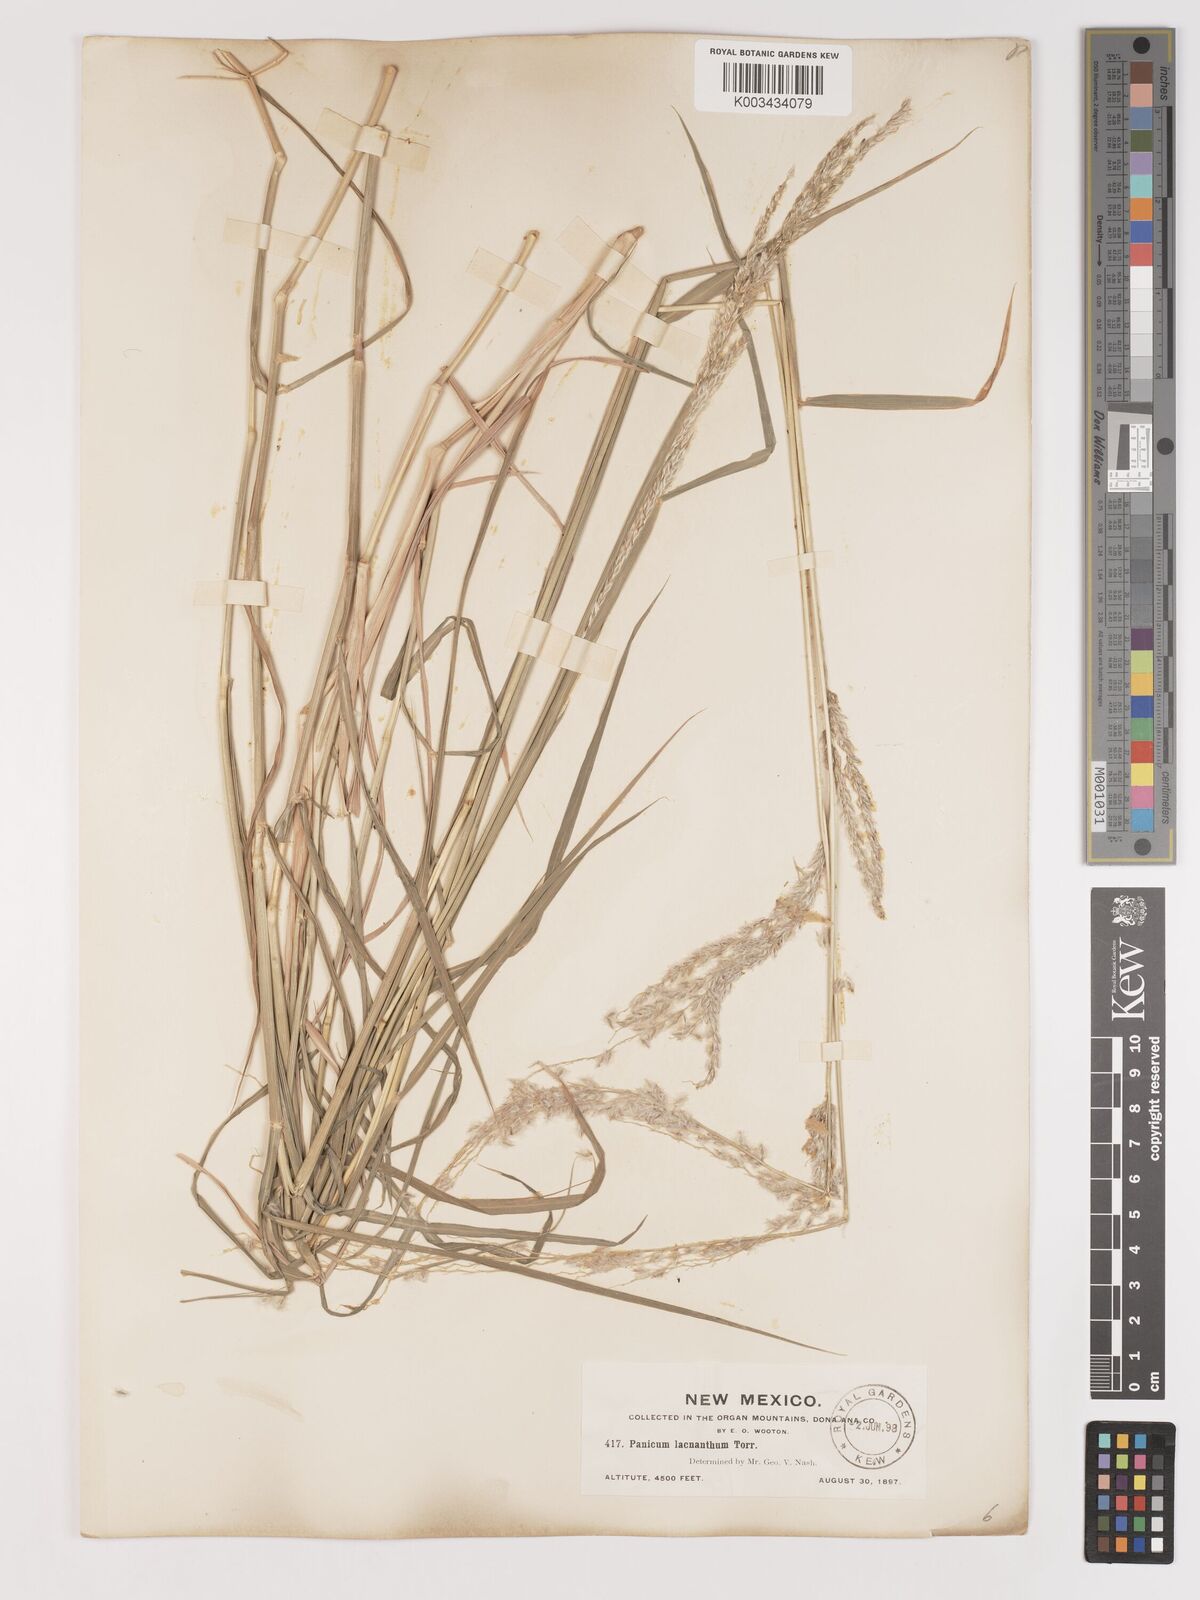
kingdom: Plantae
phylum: Tracheophyta
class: Liliopsida
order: Poales
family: Poaceae
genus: Digitaria
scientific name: Digitaria californica
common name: Arizona cottontop
